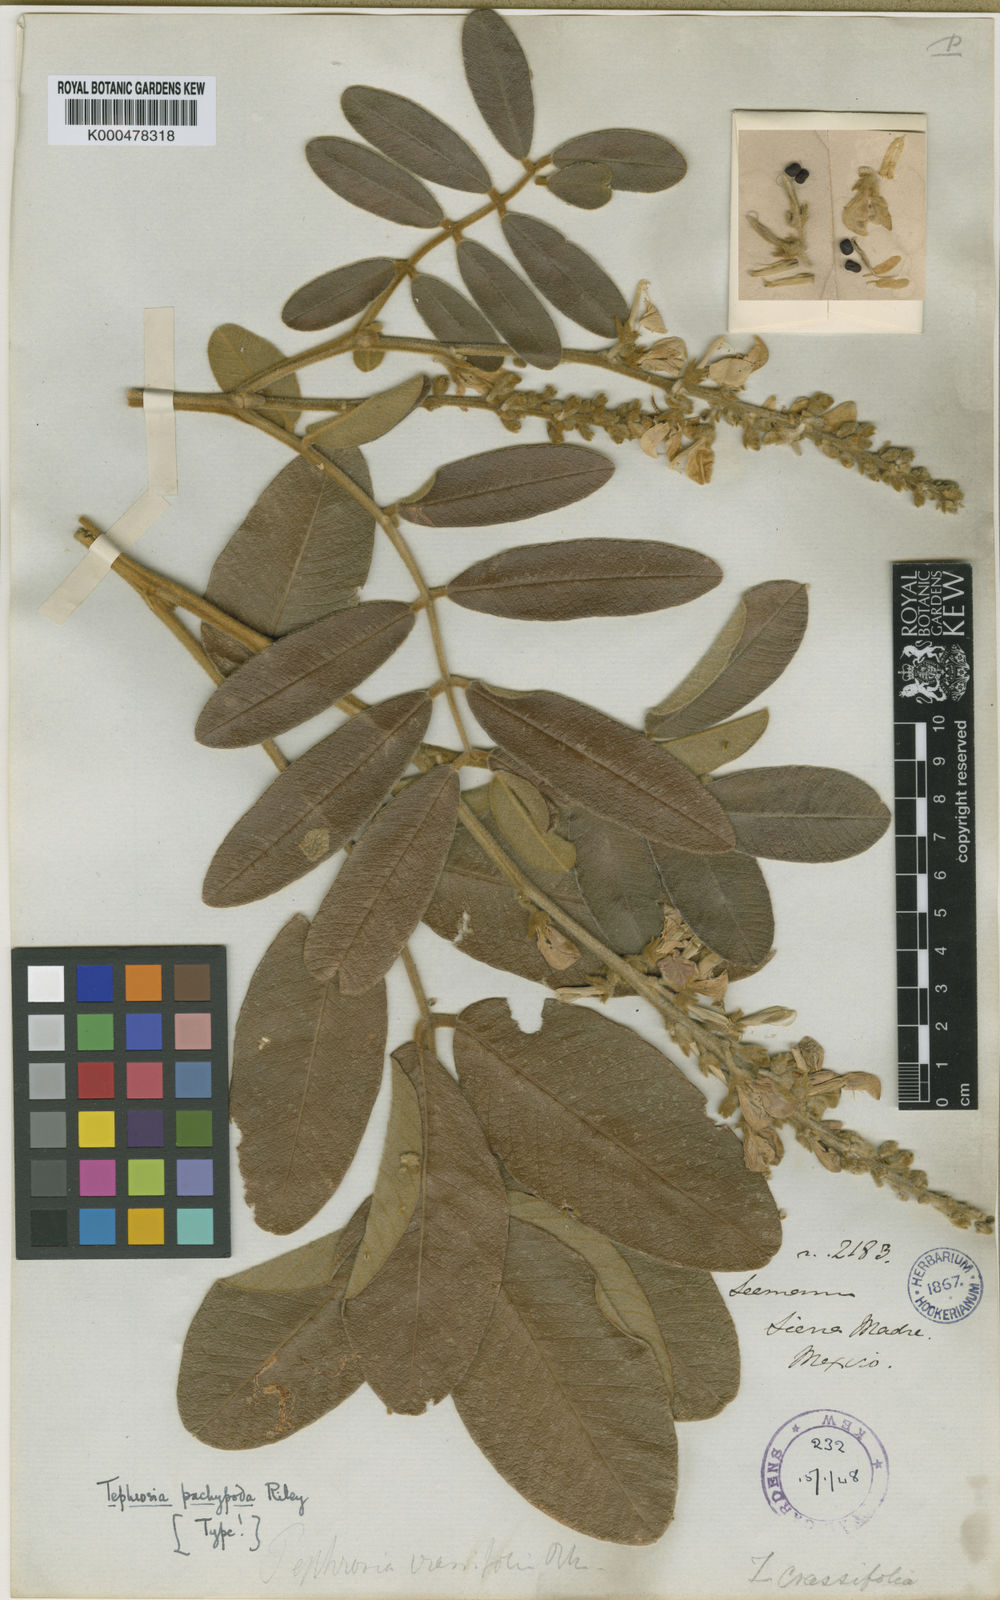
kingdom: Plantae
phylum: Tracheophyta
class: Magnoliopsida
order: Fabales
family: Fabaceae
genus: Tephrosia
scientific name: Tephrosia pachypoda
